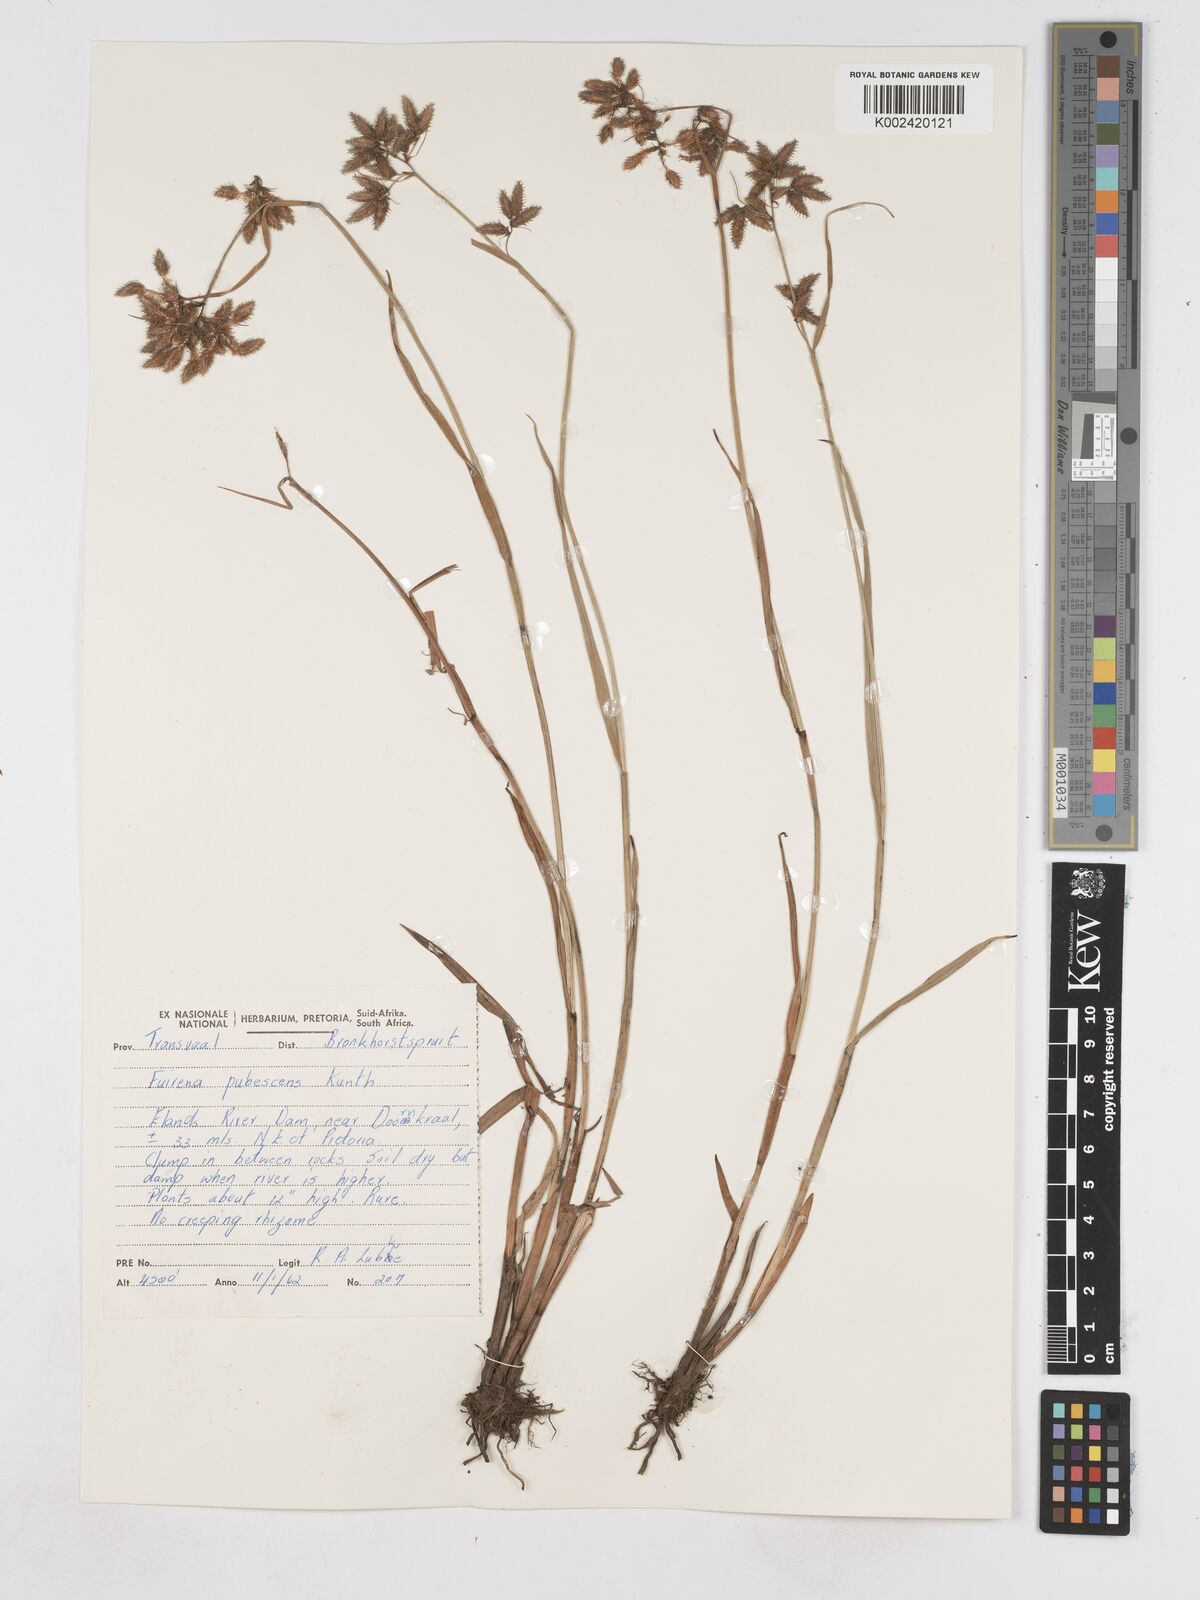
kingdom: Plantae
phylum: Tracheophyta
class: Liliopsida
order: Poales
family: Cyperaceae
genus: Fuirena
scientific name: Fuirena pubescens
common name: Hairy sedge
